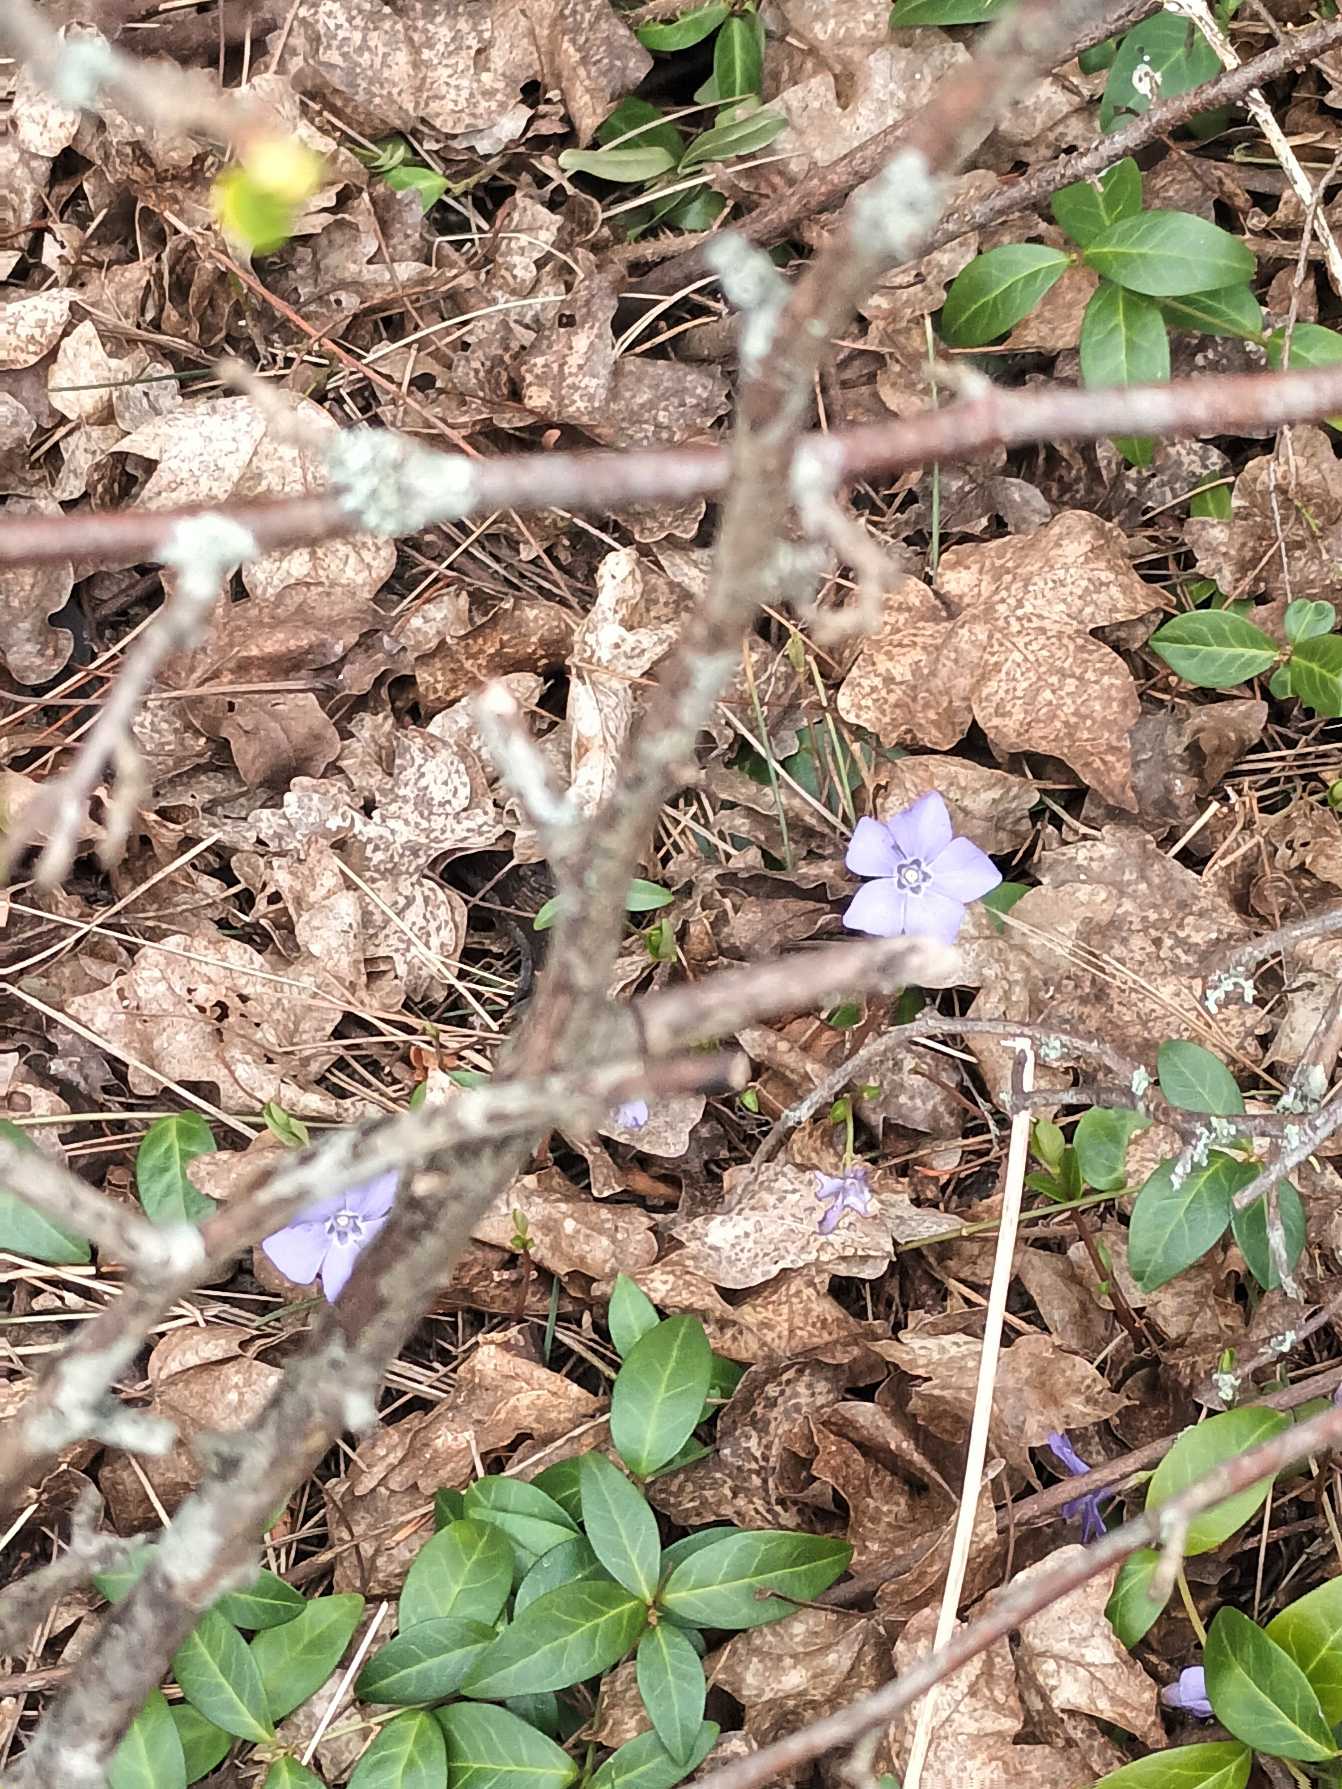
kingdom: Plantae
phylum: Tracheophyta
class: Magnoliopsida
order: Gentianales
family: Apocynaceae
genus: Vinca
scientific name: Vinca minor
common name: Liden singrøn
